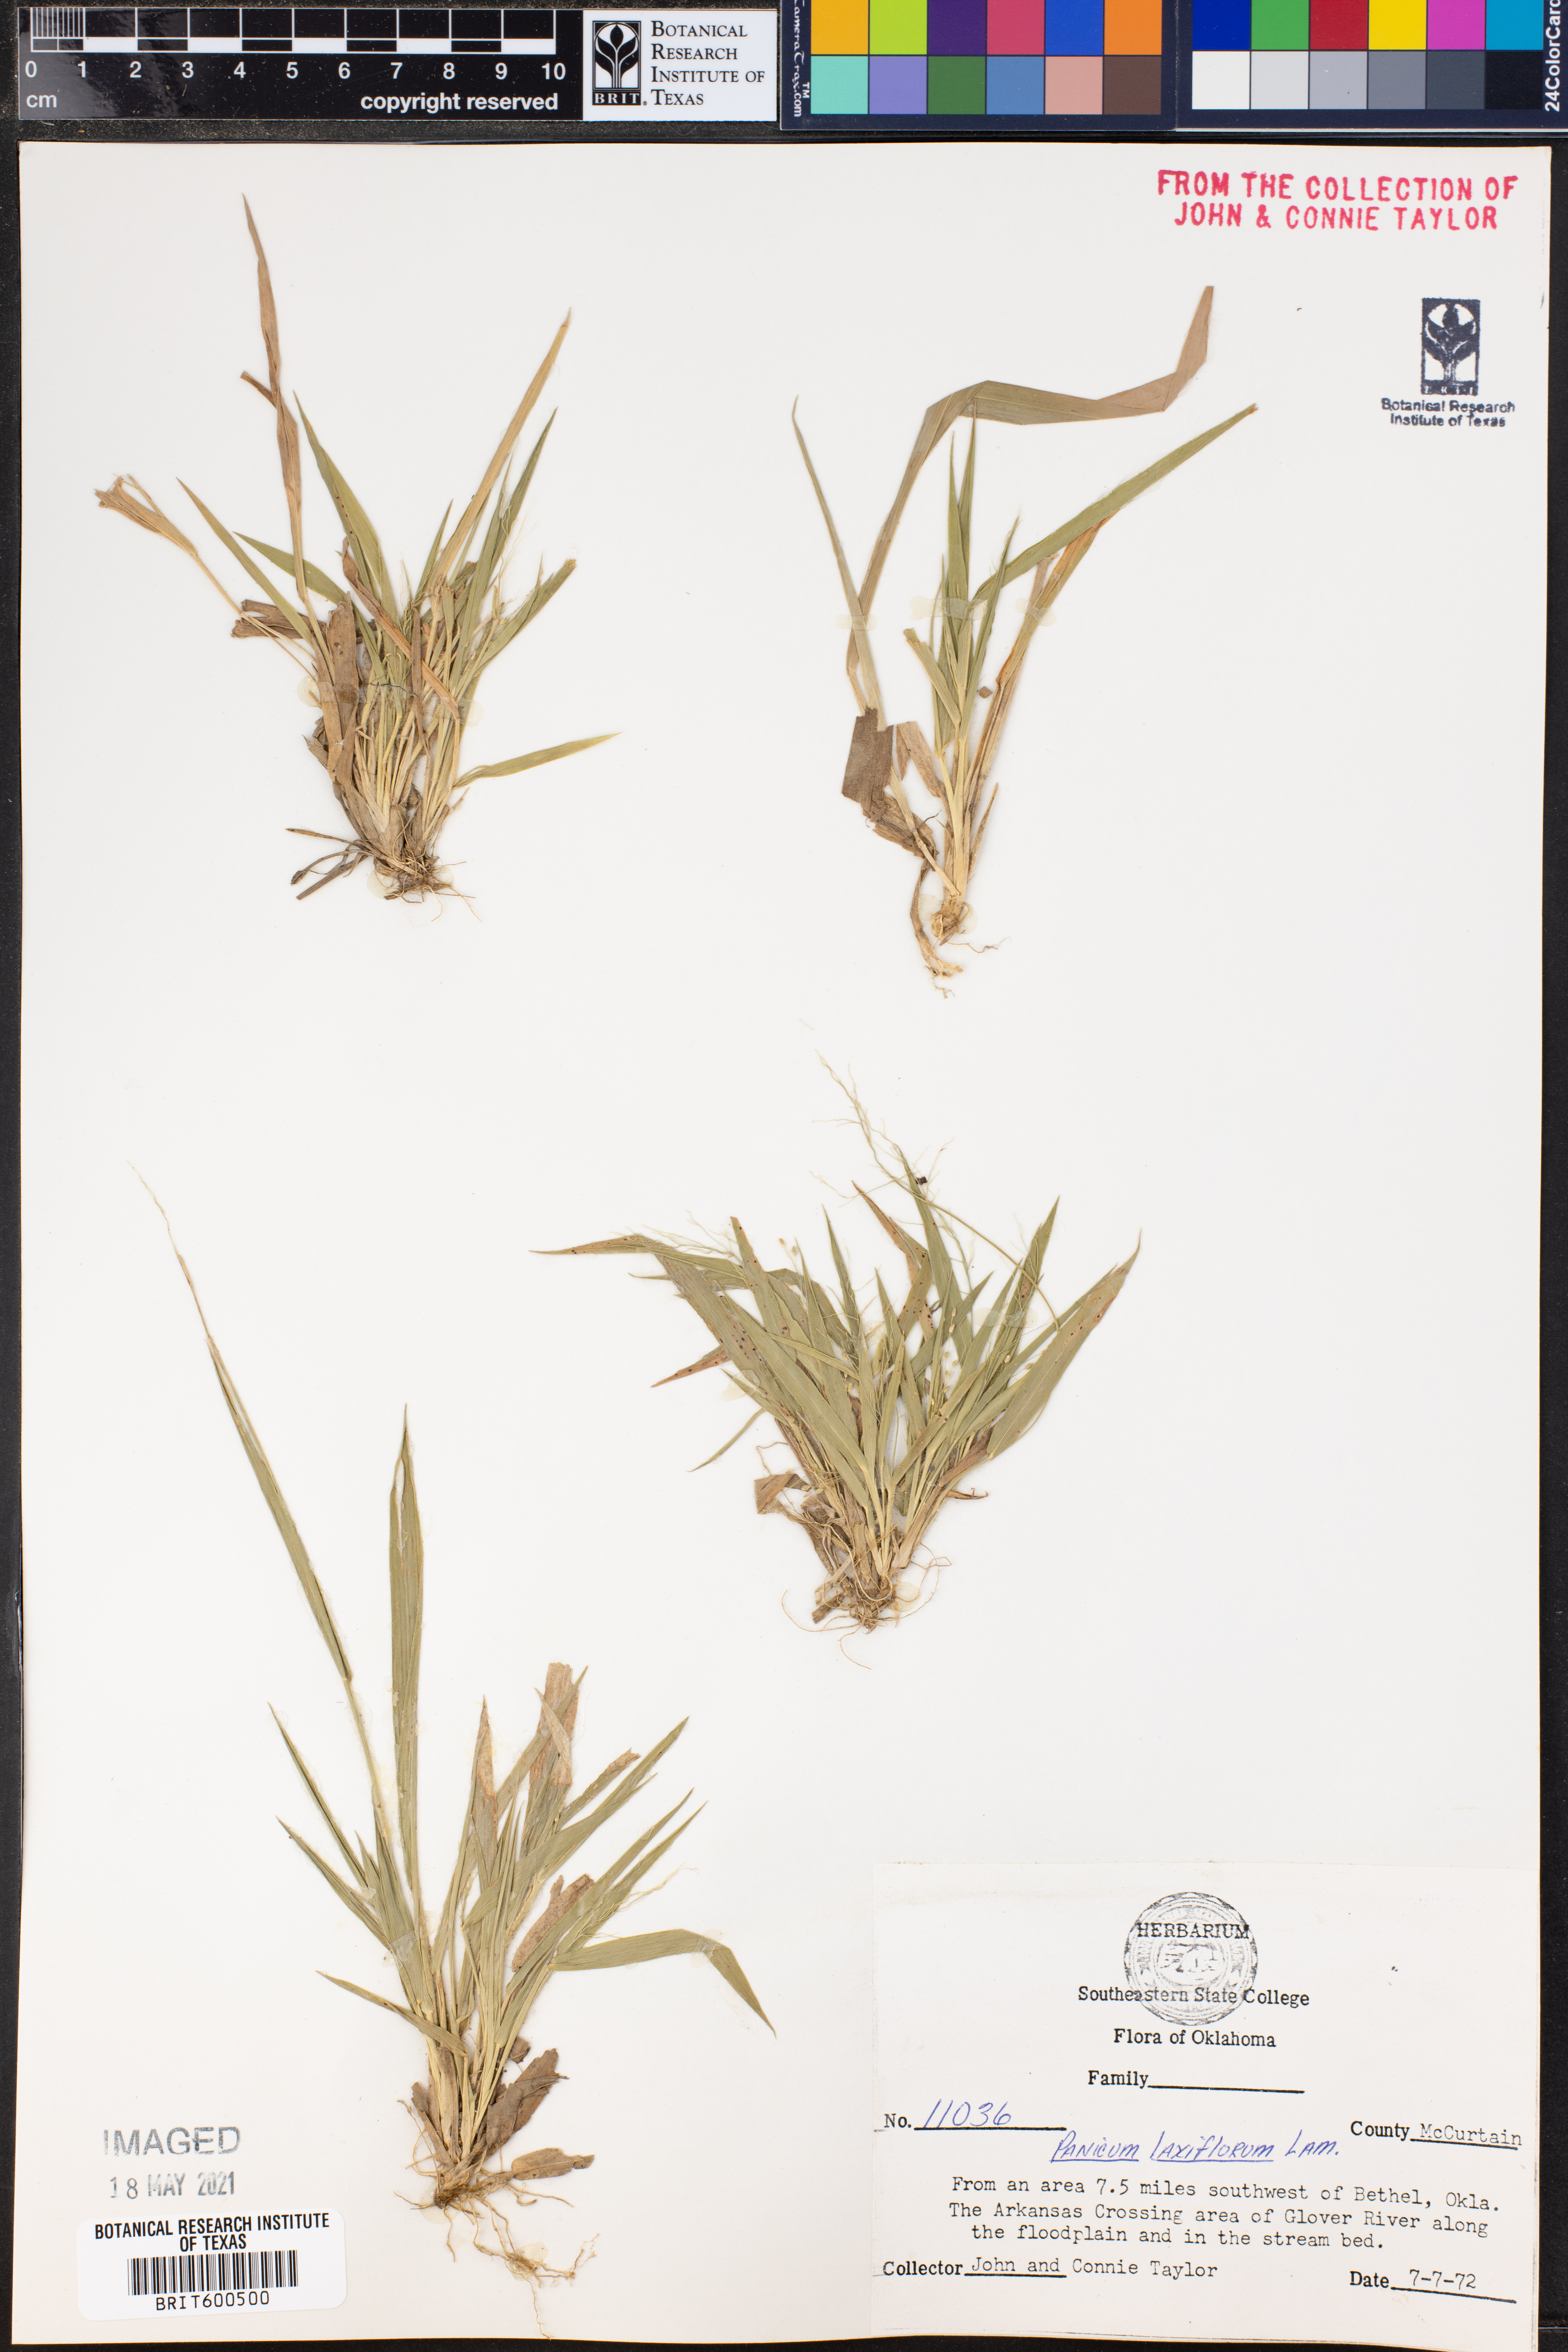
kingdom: Plantae
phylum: Tracheophyta
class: Liliopsida
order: Poales
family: Poaceae
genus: Dichanthelium
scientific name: Dichanthelium laxiflorum
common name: Soft-tuft panic grass
